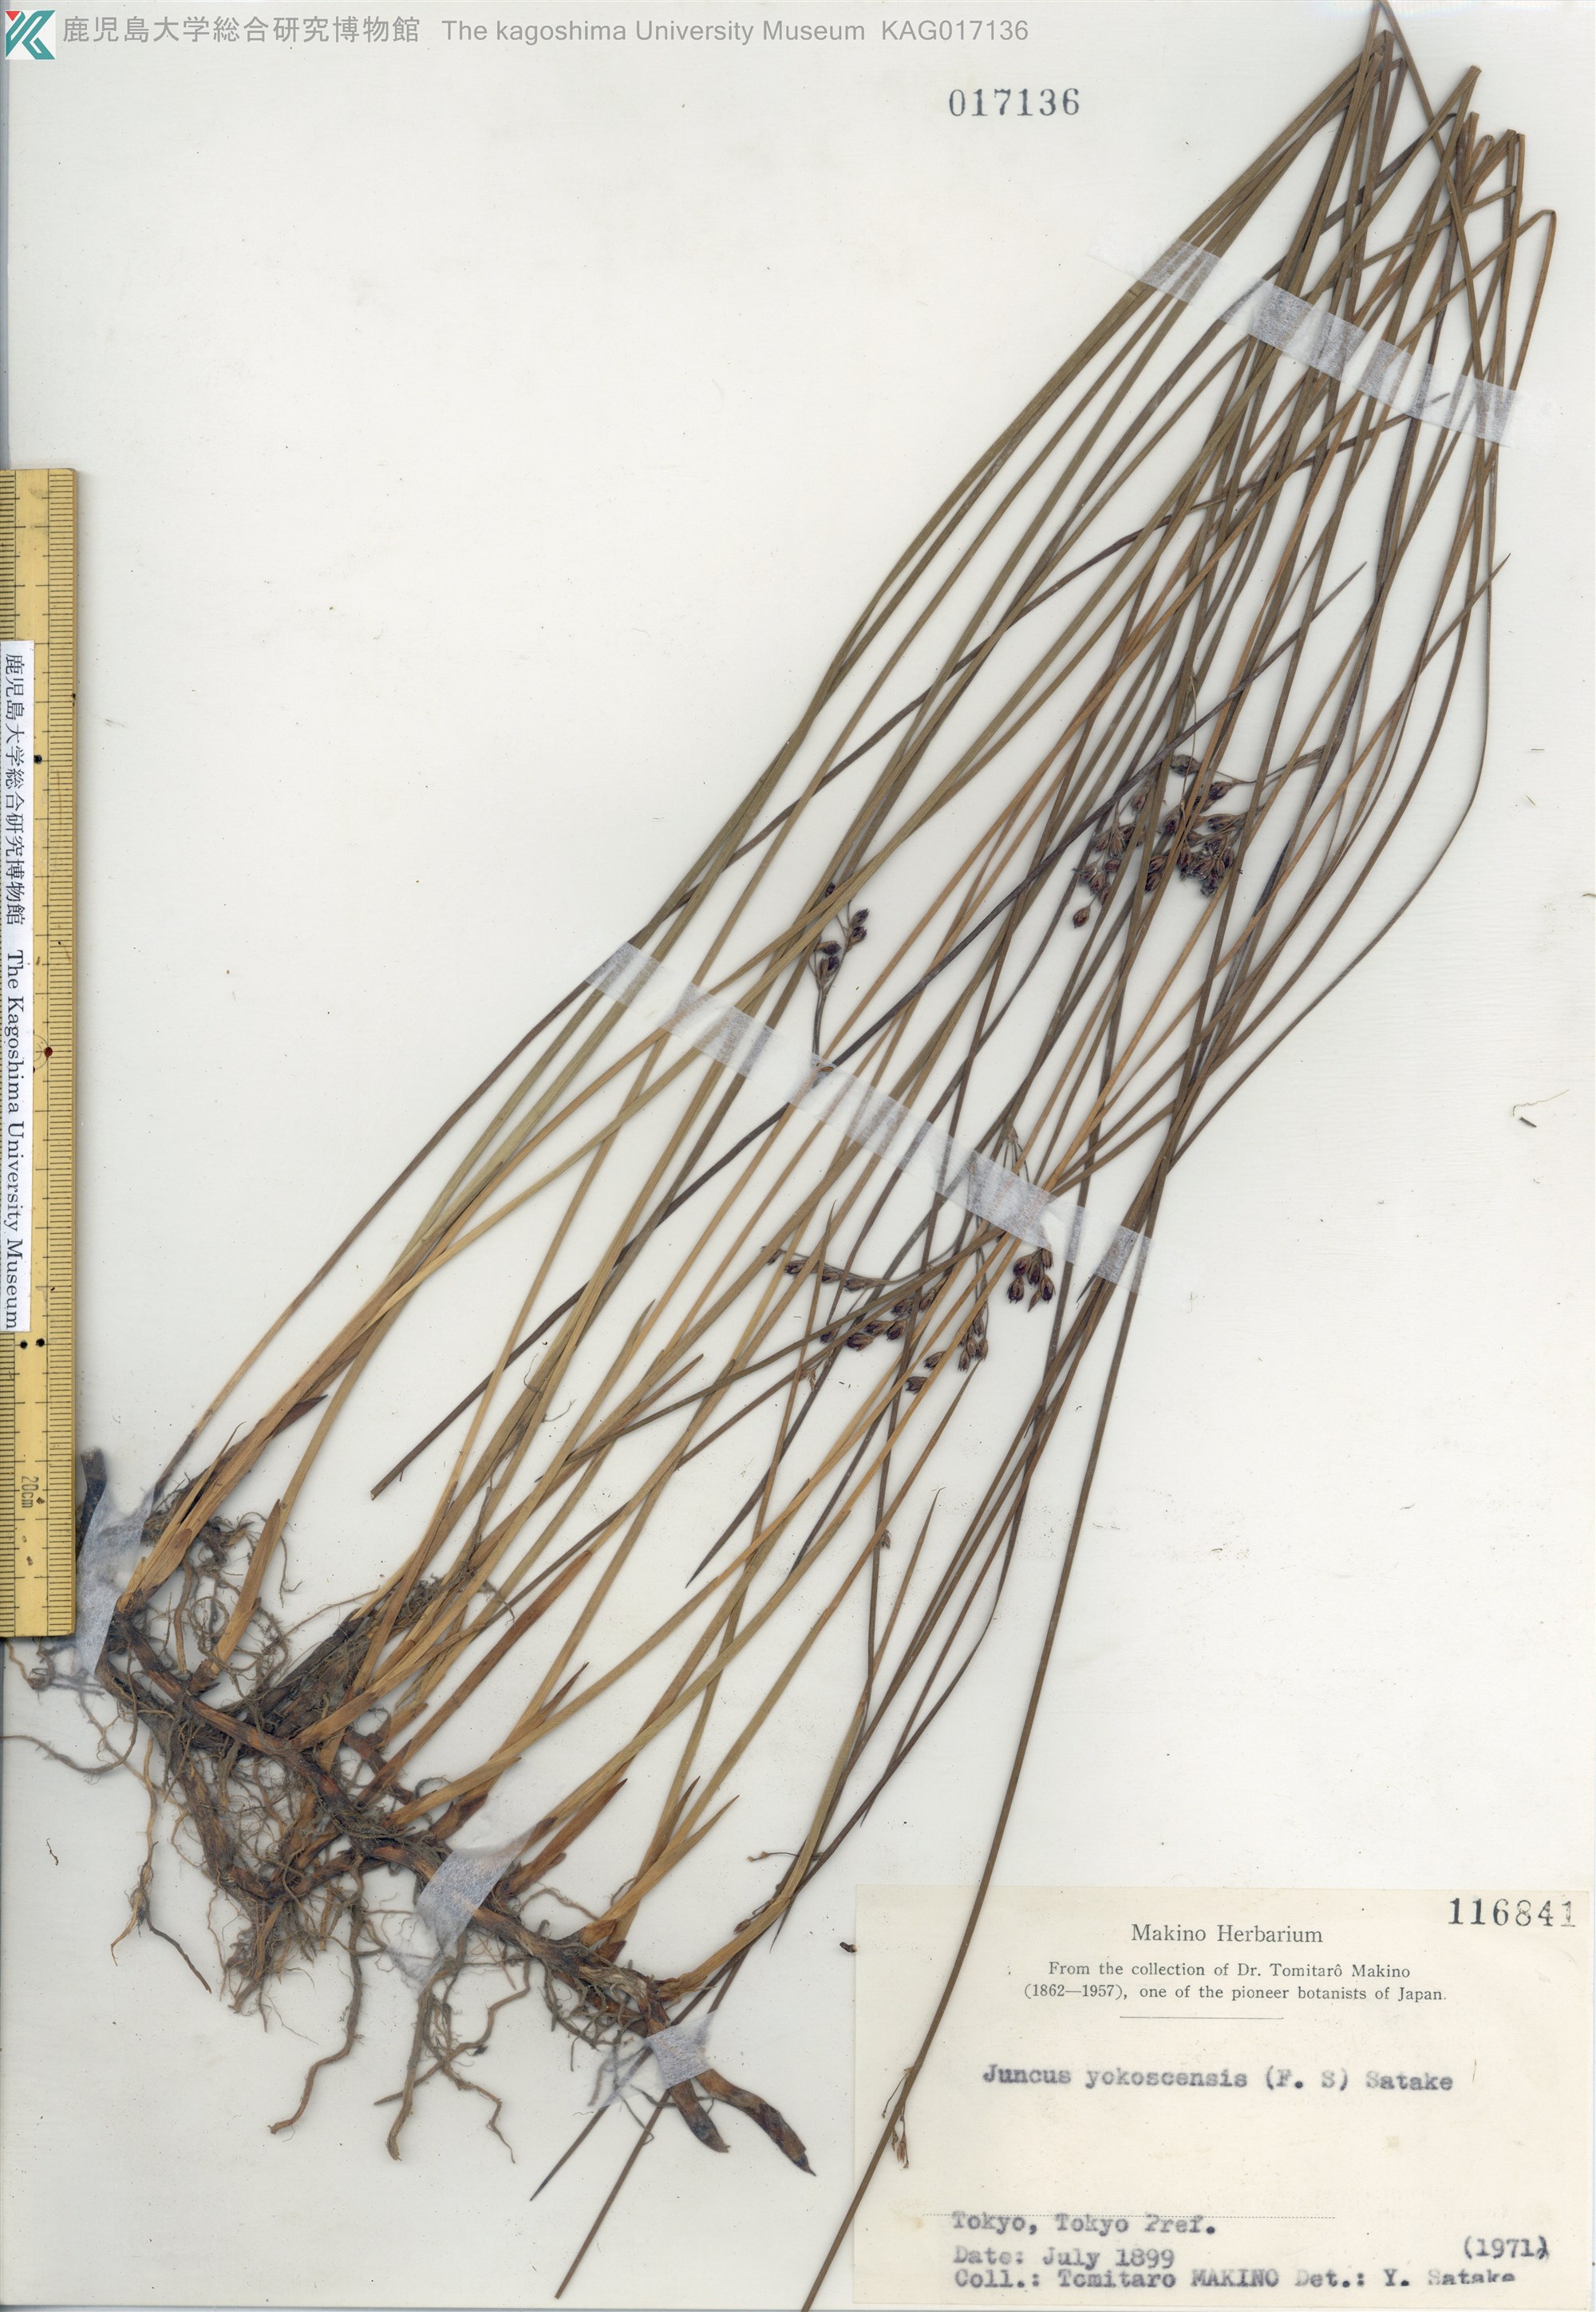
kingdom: Plantae
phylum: Tracheophyta
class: Liliopsida
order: Poales
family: Juncaceae
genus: Juncus
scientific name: Juncus fauriei
